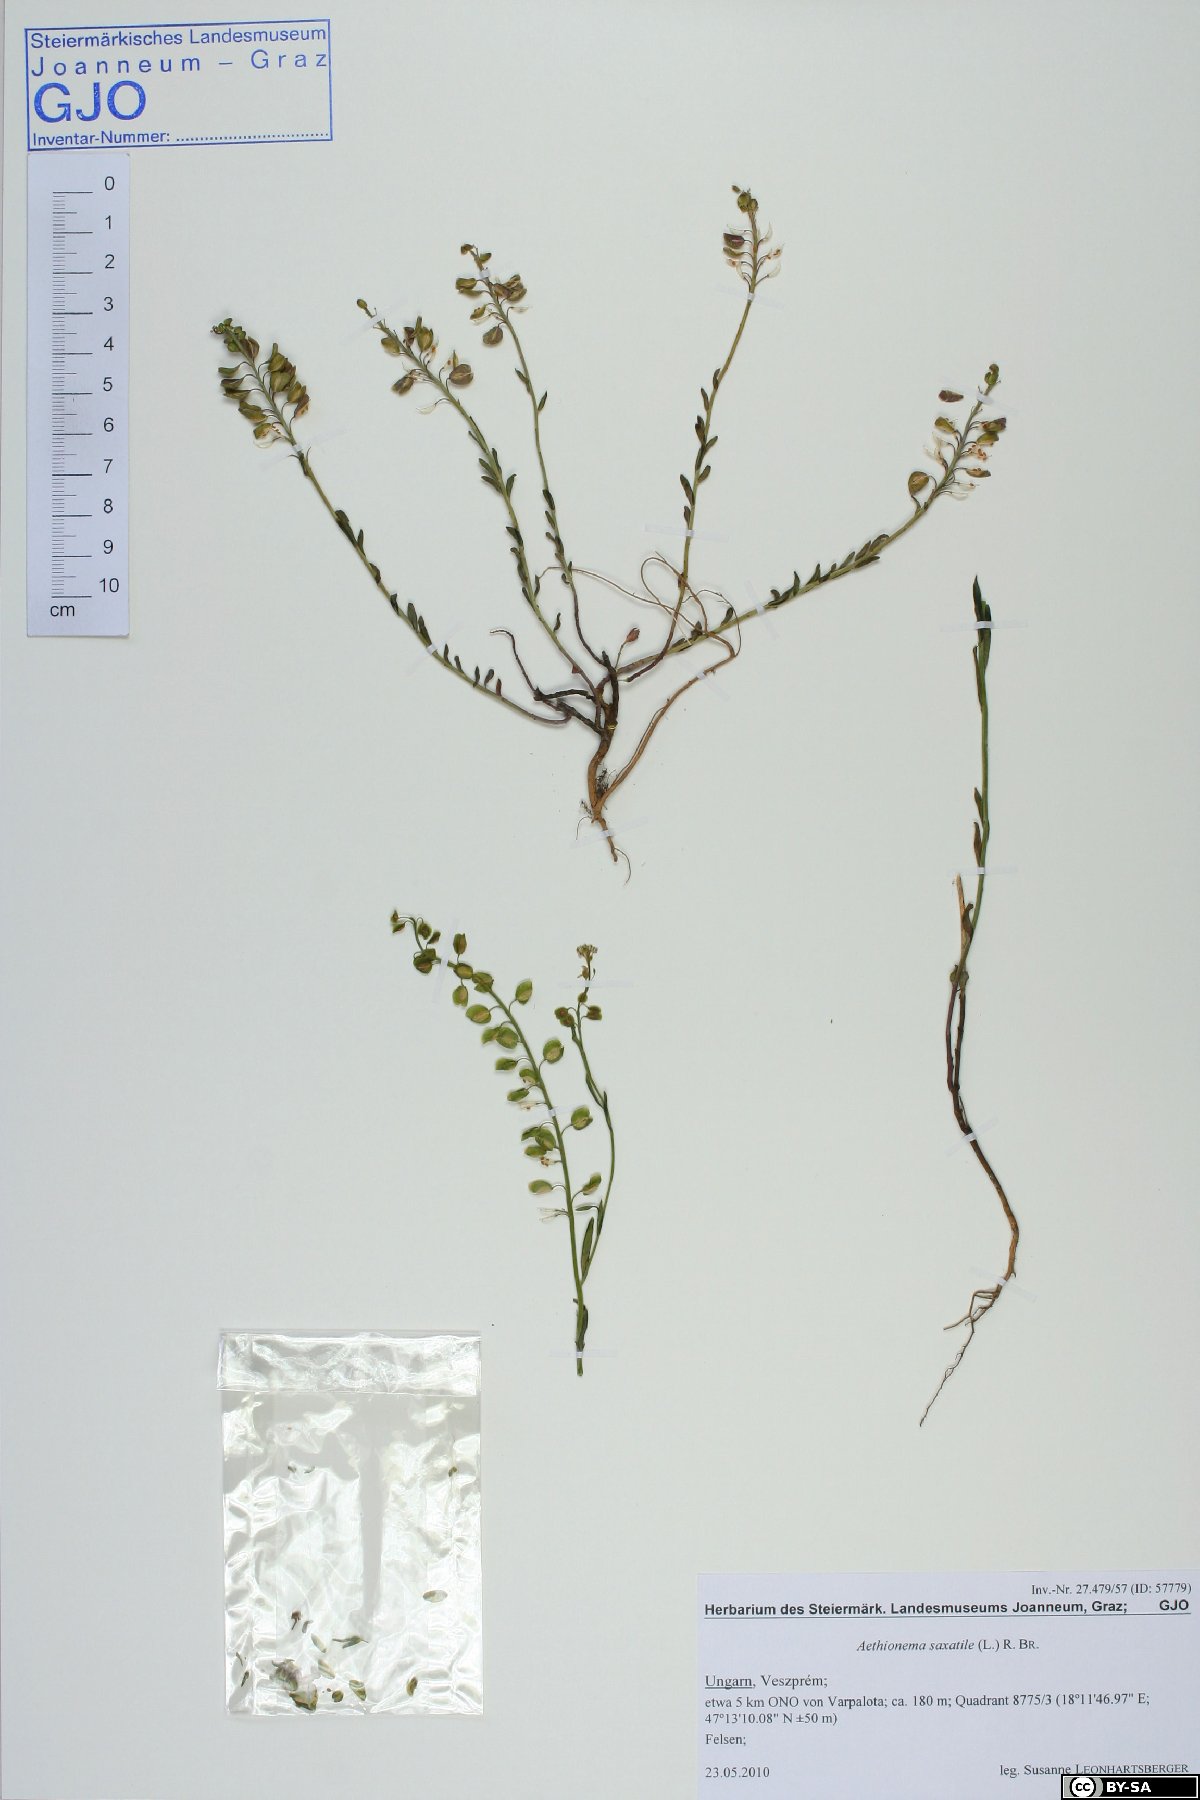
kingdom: Plantae
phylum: Tracheophyta
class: Magnoliopsida
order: Brassicales
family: Brassicaceae
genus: Aethionema
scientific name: Aethionema saxatile
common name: Burnt candytuft
